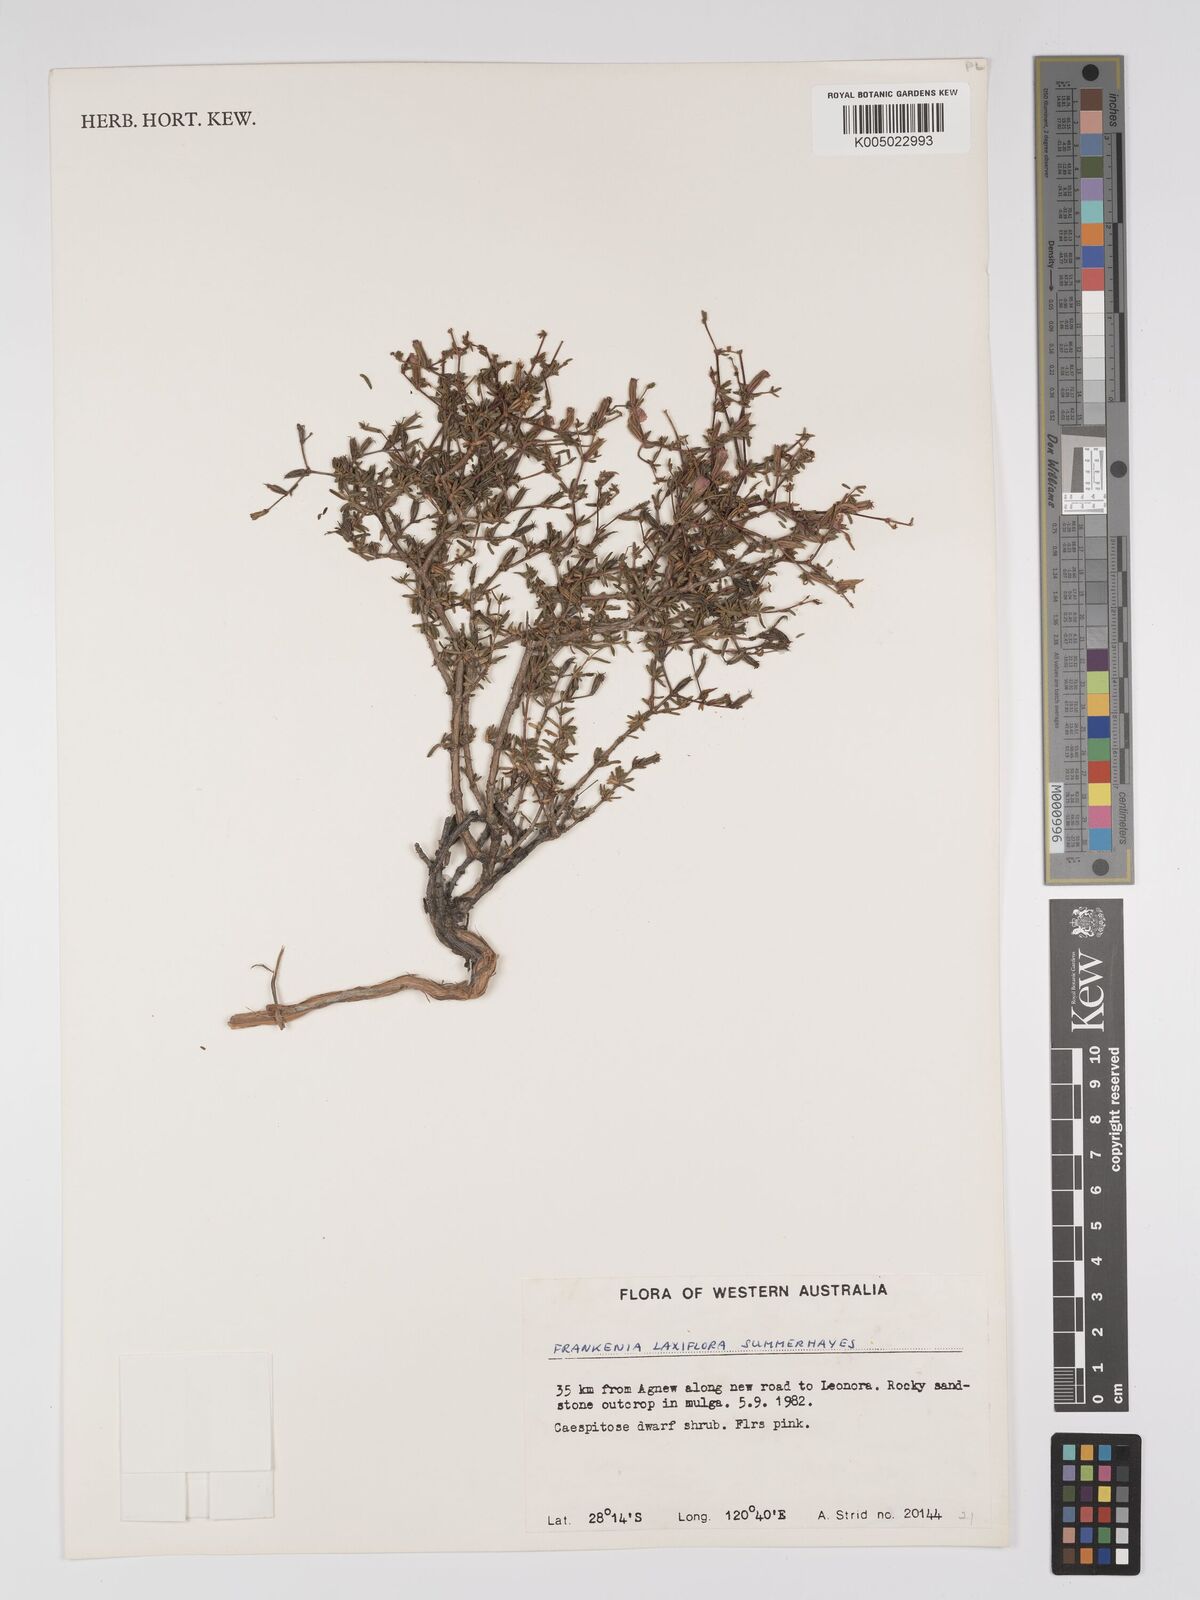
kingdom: Plantae
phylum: Tracheophyta
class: Magnoliopsida
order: Caryophyllales
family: Frankeniaceae
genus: Frankenia
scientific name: Frankenia laxiflora
